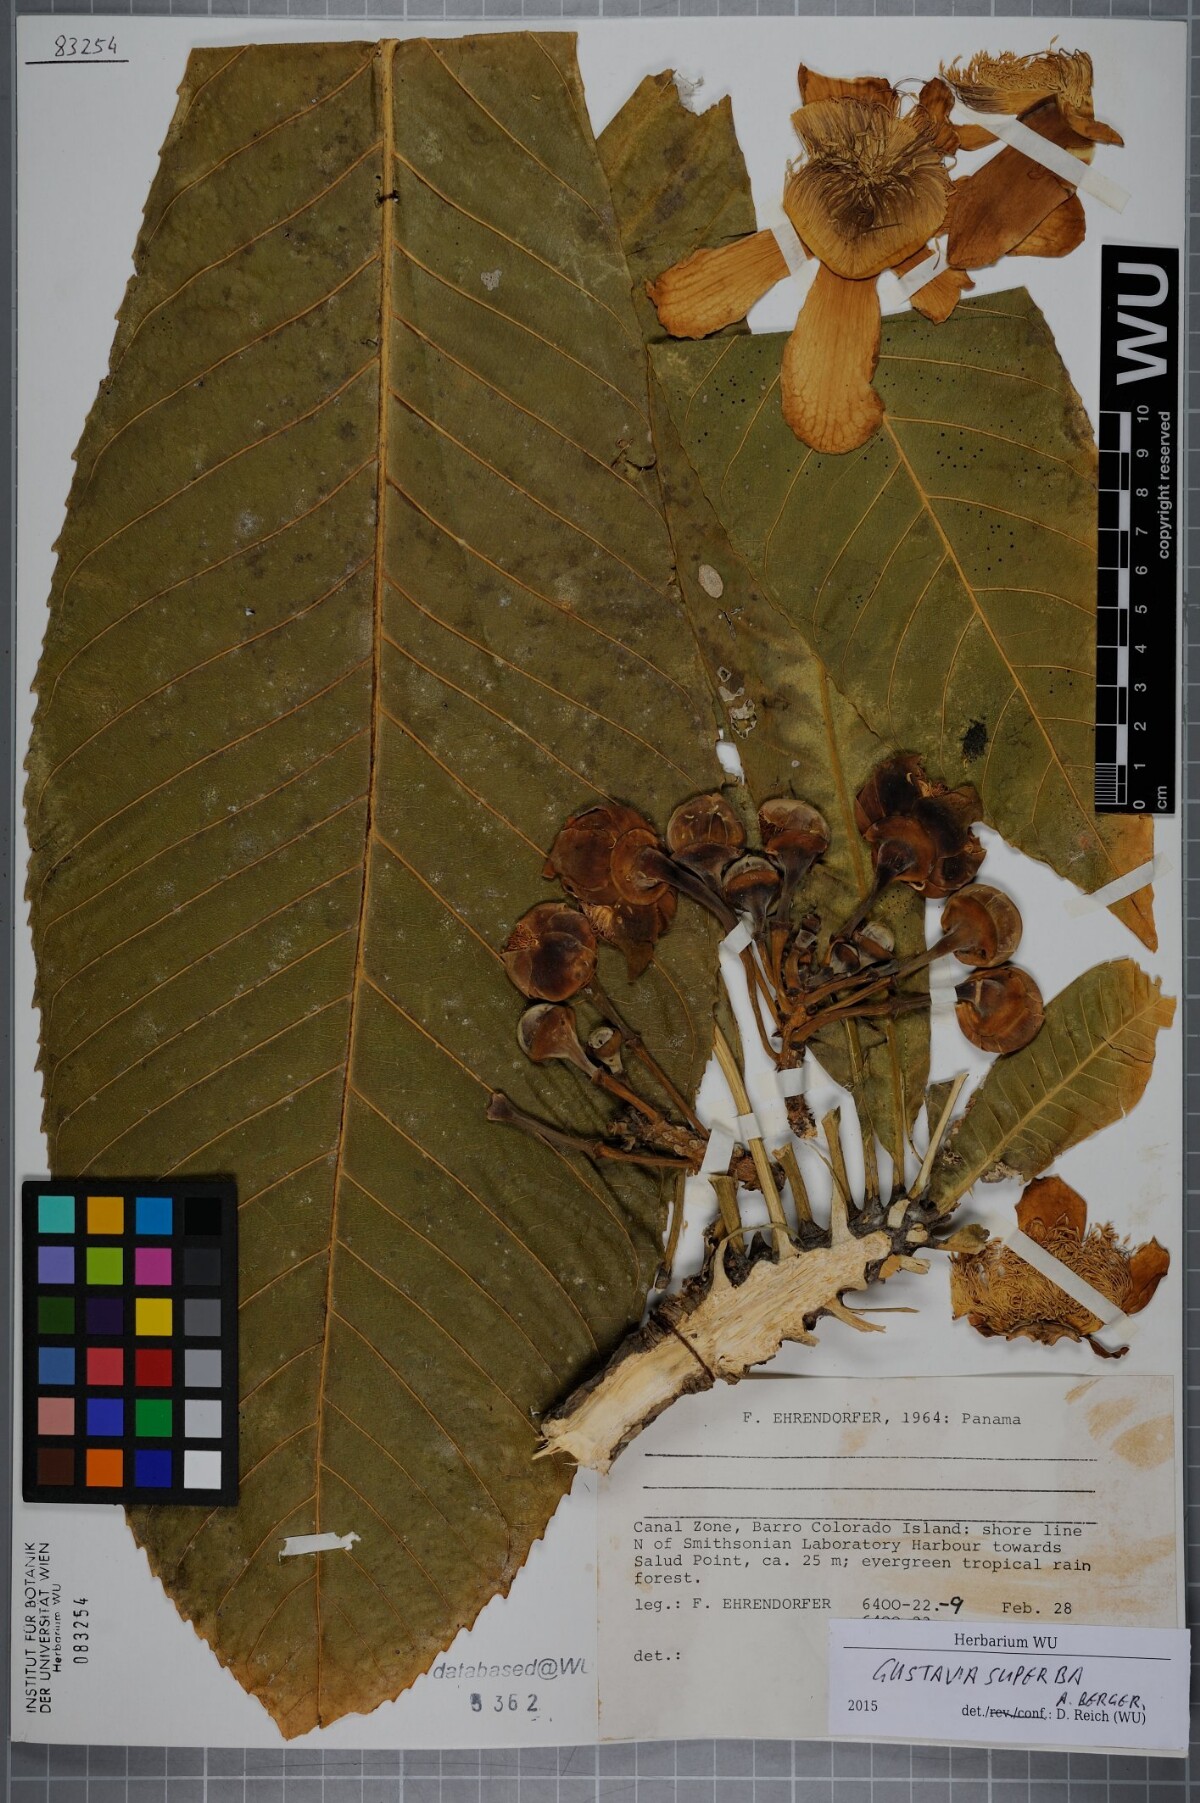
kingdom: Plantae
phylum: Tracheophyta
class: Magnoliopsida
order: Ericales
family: Lecythidaceae
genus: Gustavia
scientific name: Gustavia superba
